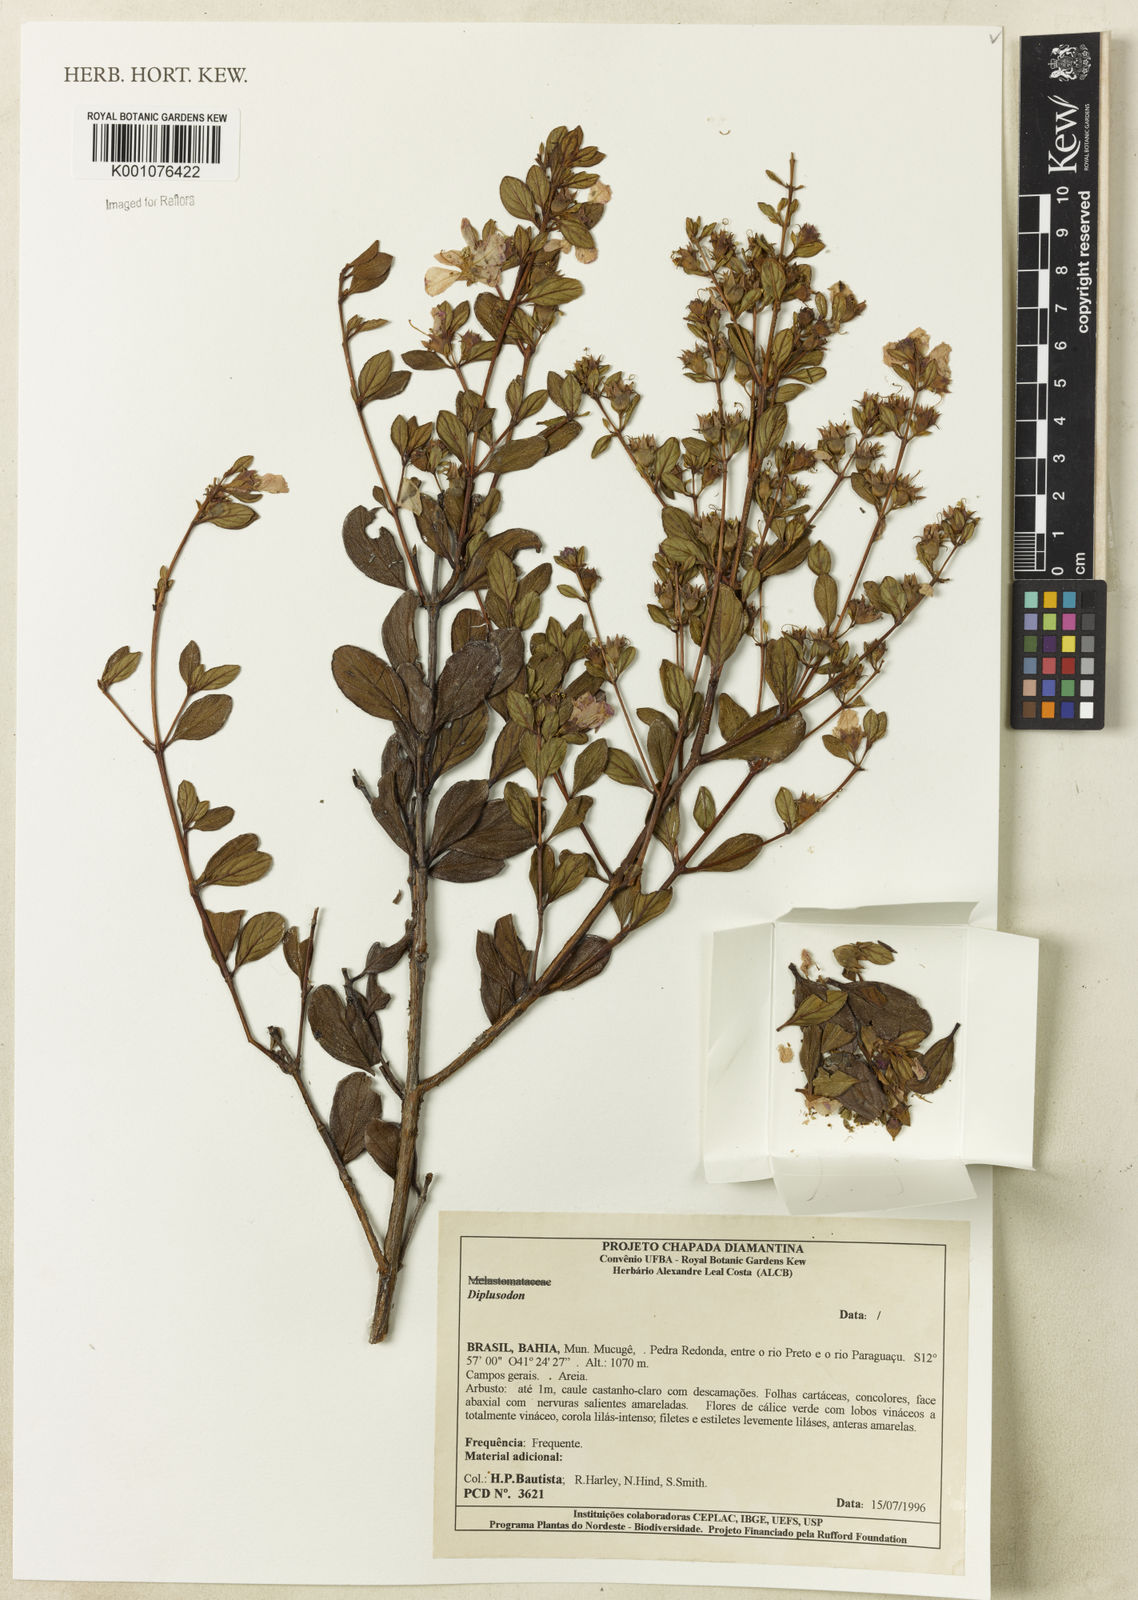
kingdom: Plantae
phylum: Tracheophyta
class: Magnoliopsida
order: Myrtales
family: Lythraceae
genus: Diplusodon
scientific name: Diplusodon
